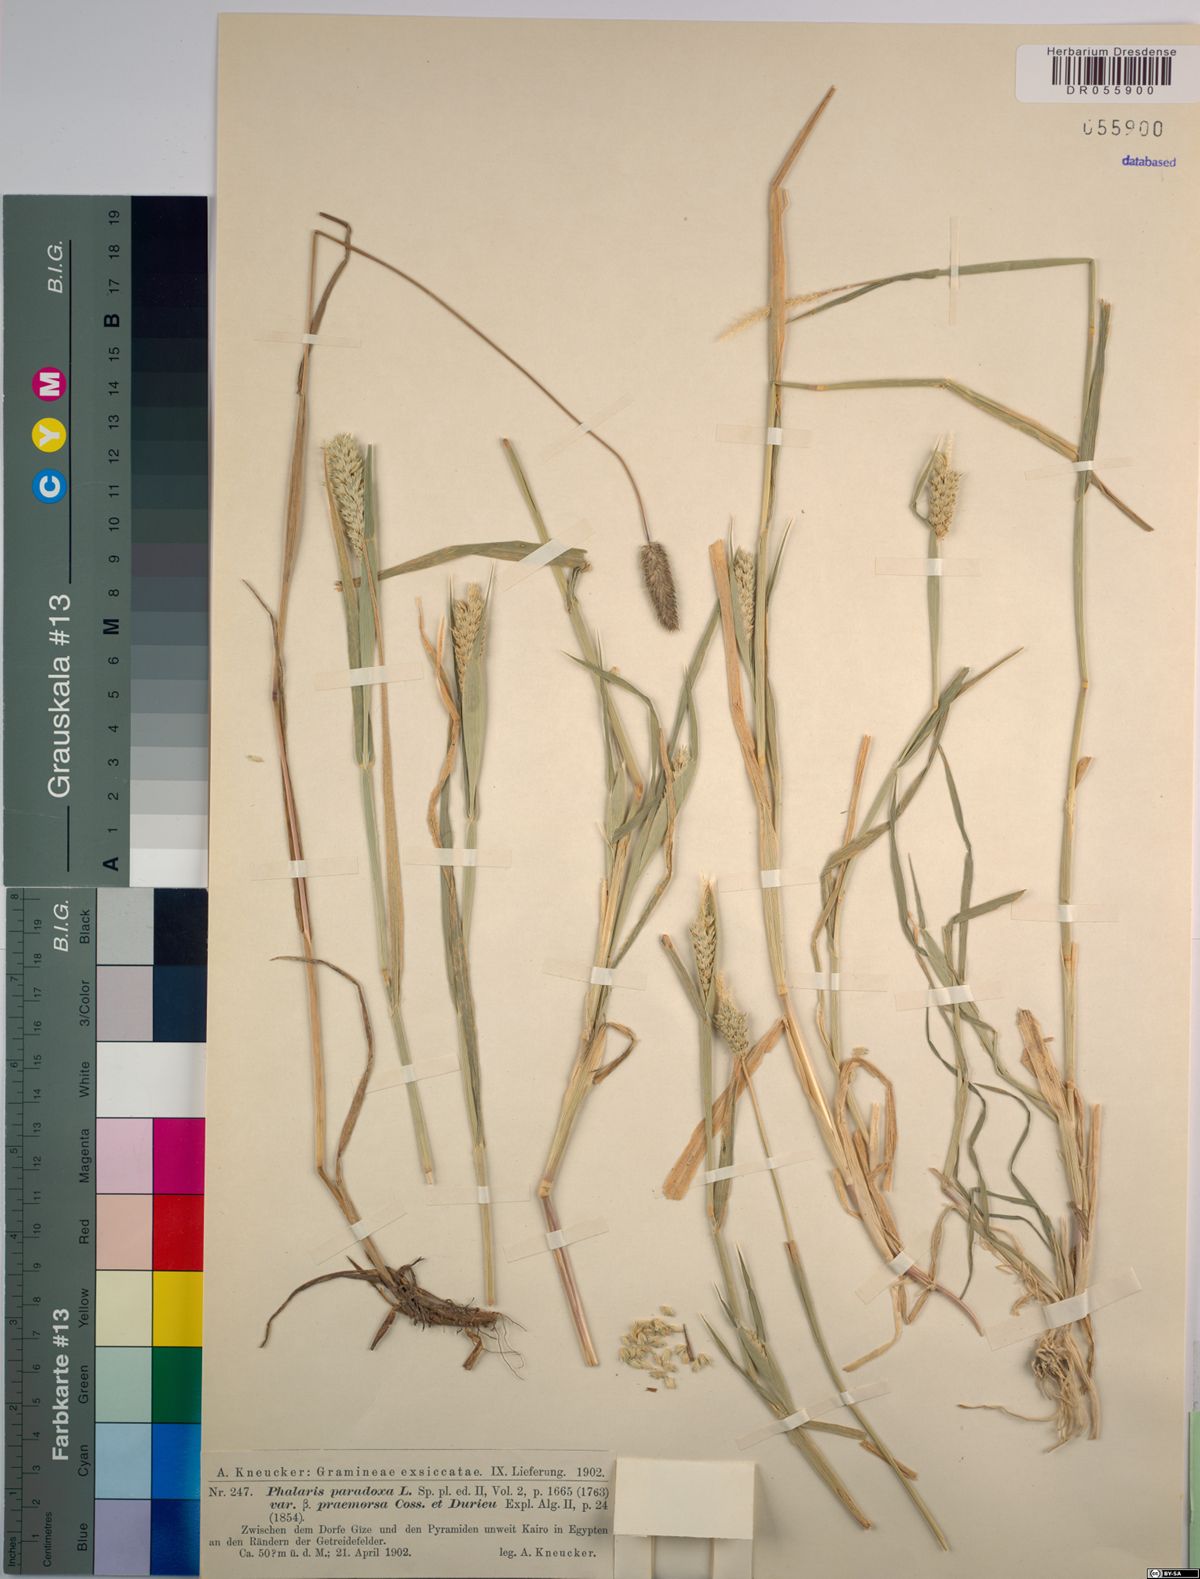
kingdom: Plantae
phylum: Tracheophyta
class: Liliopsida
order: Poales
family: Poaceae
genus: Phalaris
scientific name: Phalaris paradoxa
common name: Awned canary-grass
